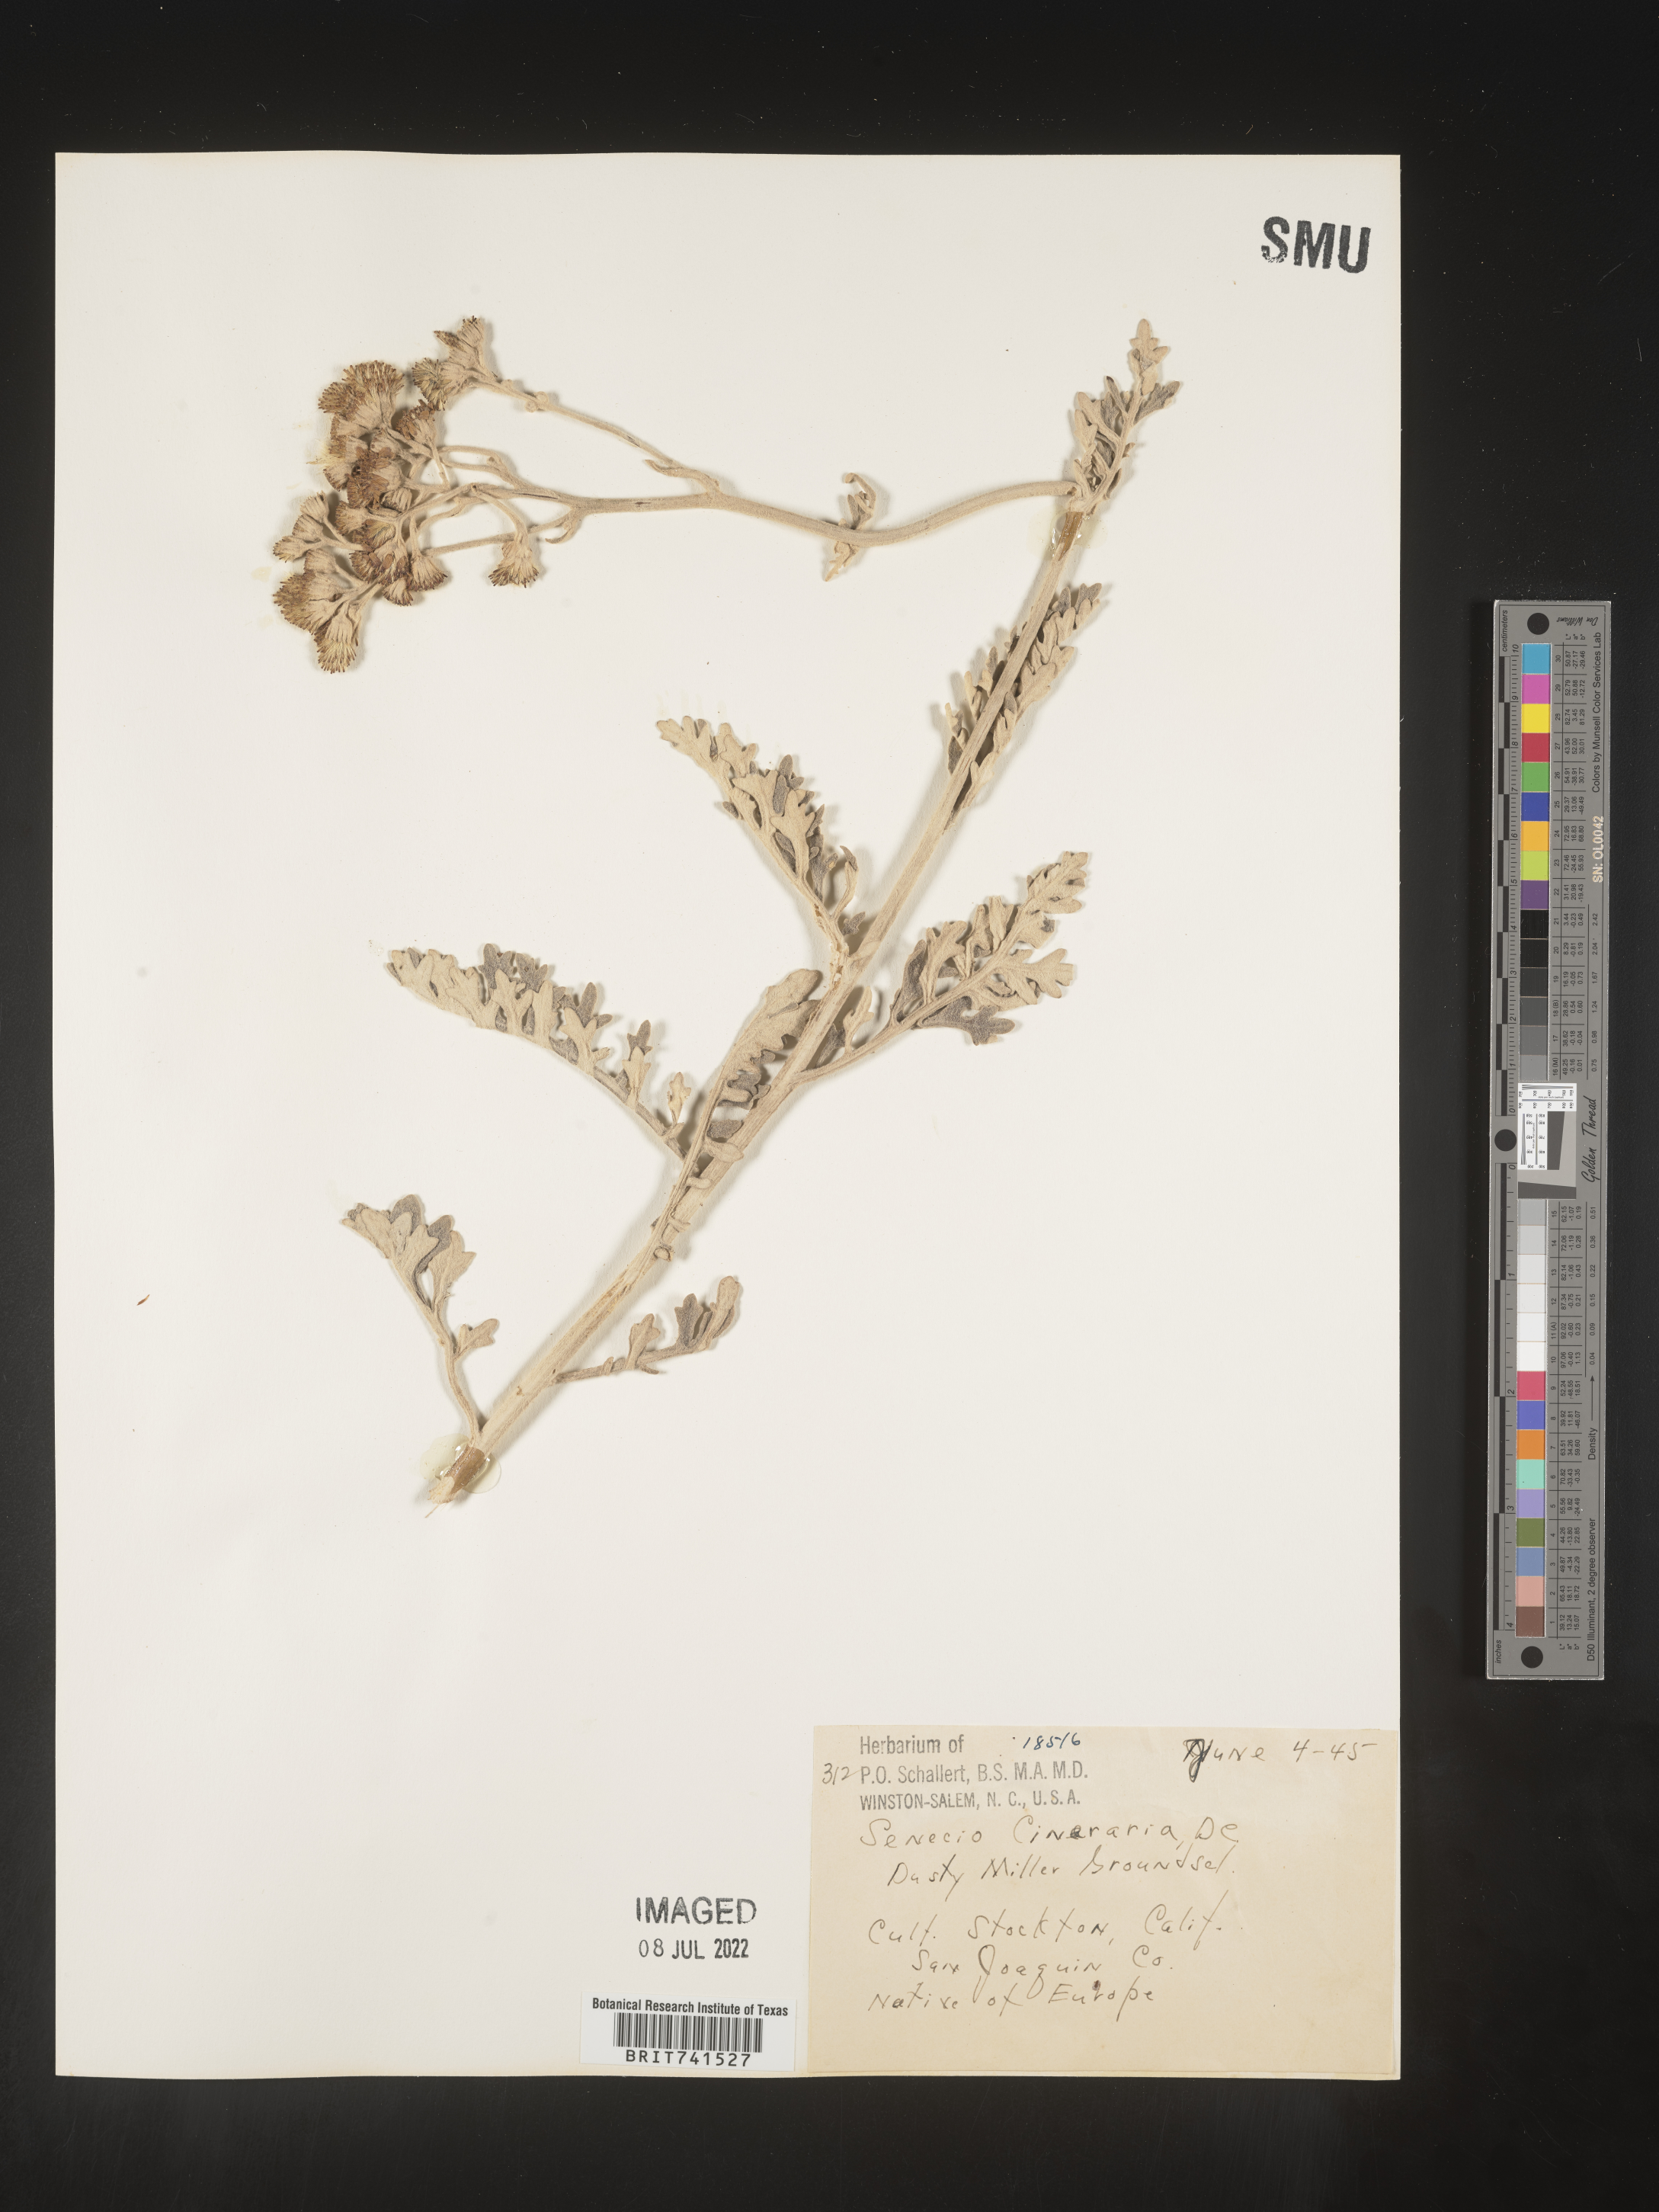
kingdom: Plantae
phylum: Tracheophyta
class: Magnoliopsida
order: Asterales
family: Asteraceae
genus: Senecio
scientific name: Senecio
